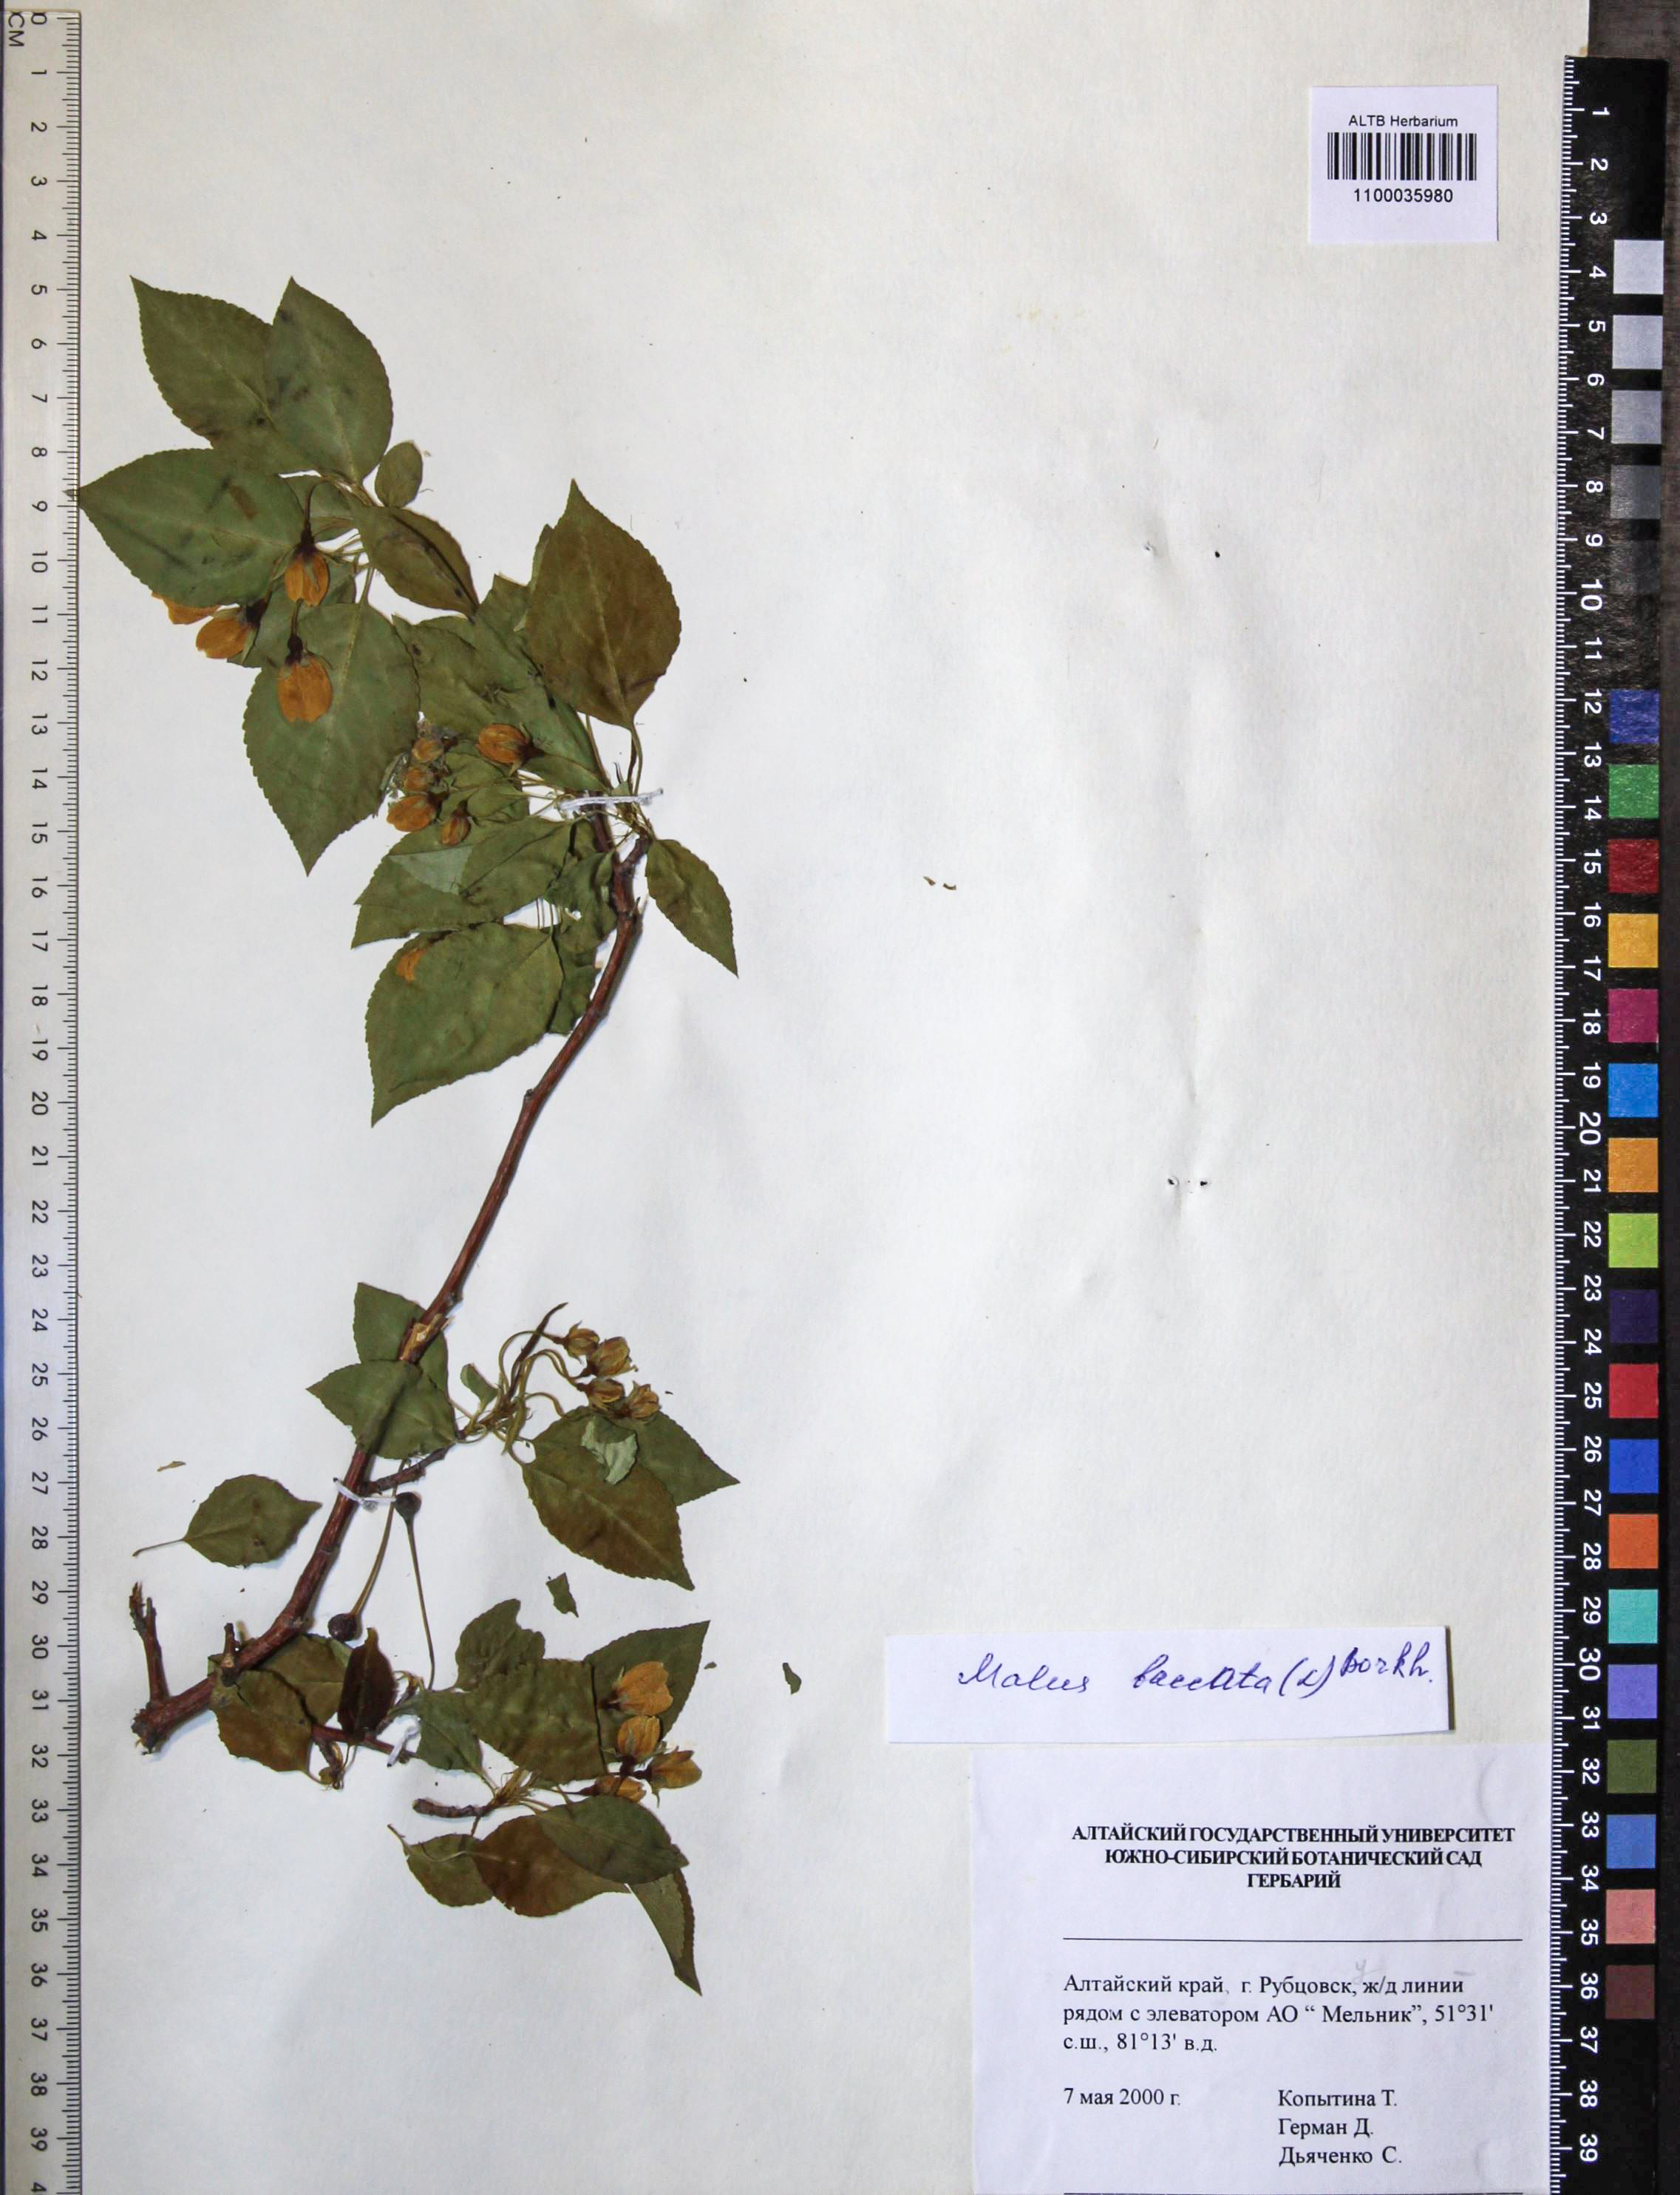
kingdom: Plantae
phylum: Tracheophyta
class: Magnoliopsida
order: Rosales
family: Rosaceae
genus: Malus
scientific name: Malus baccata
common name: Siberian crab
